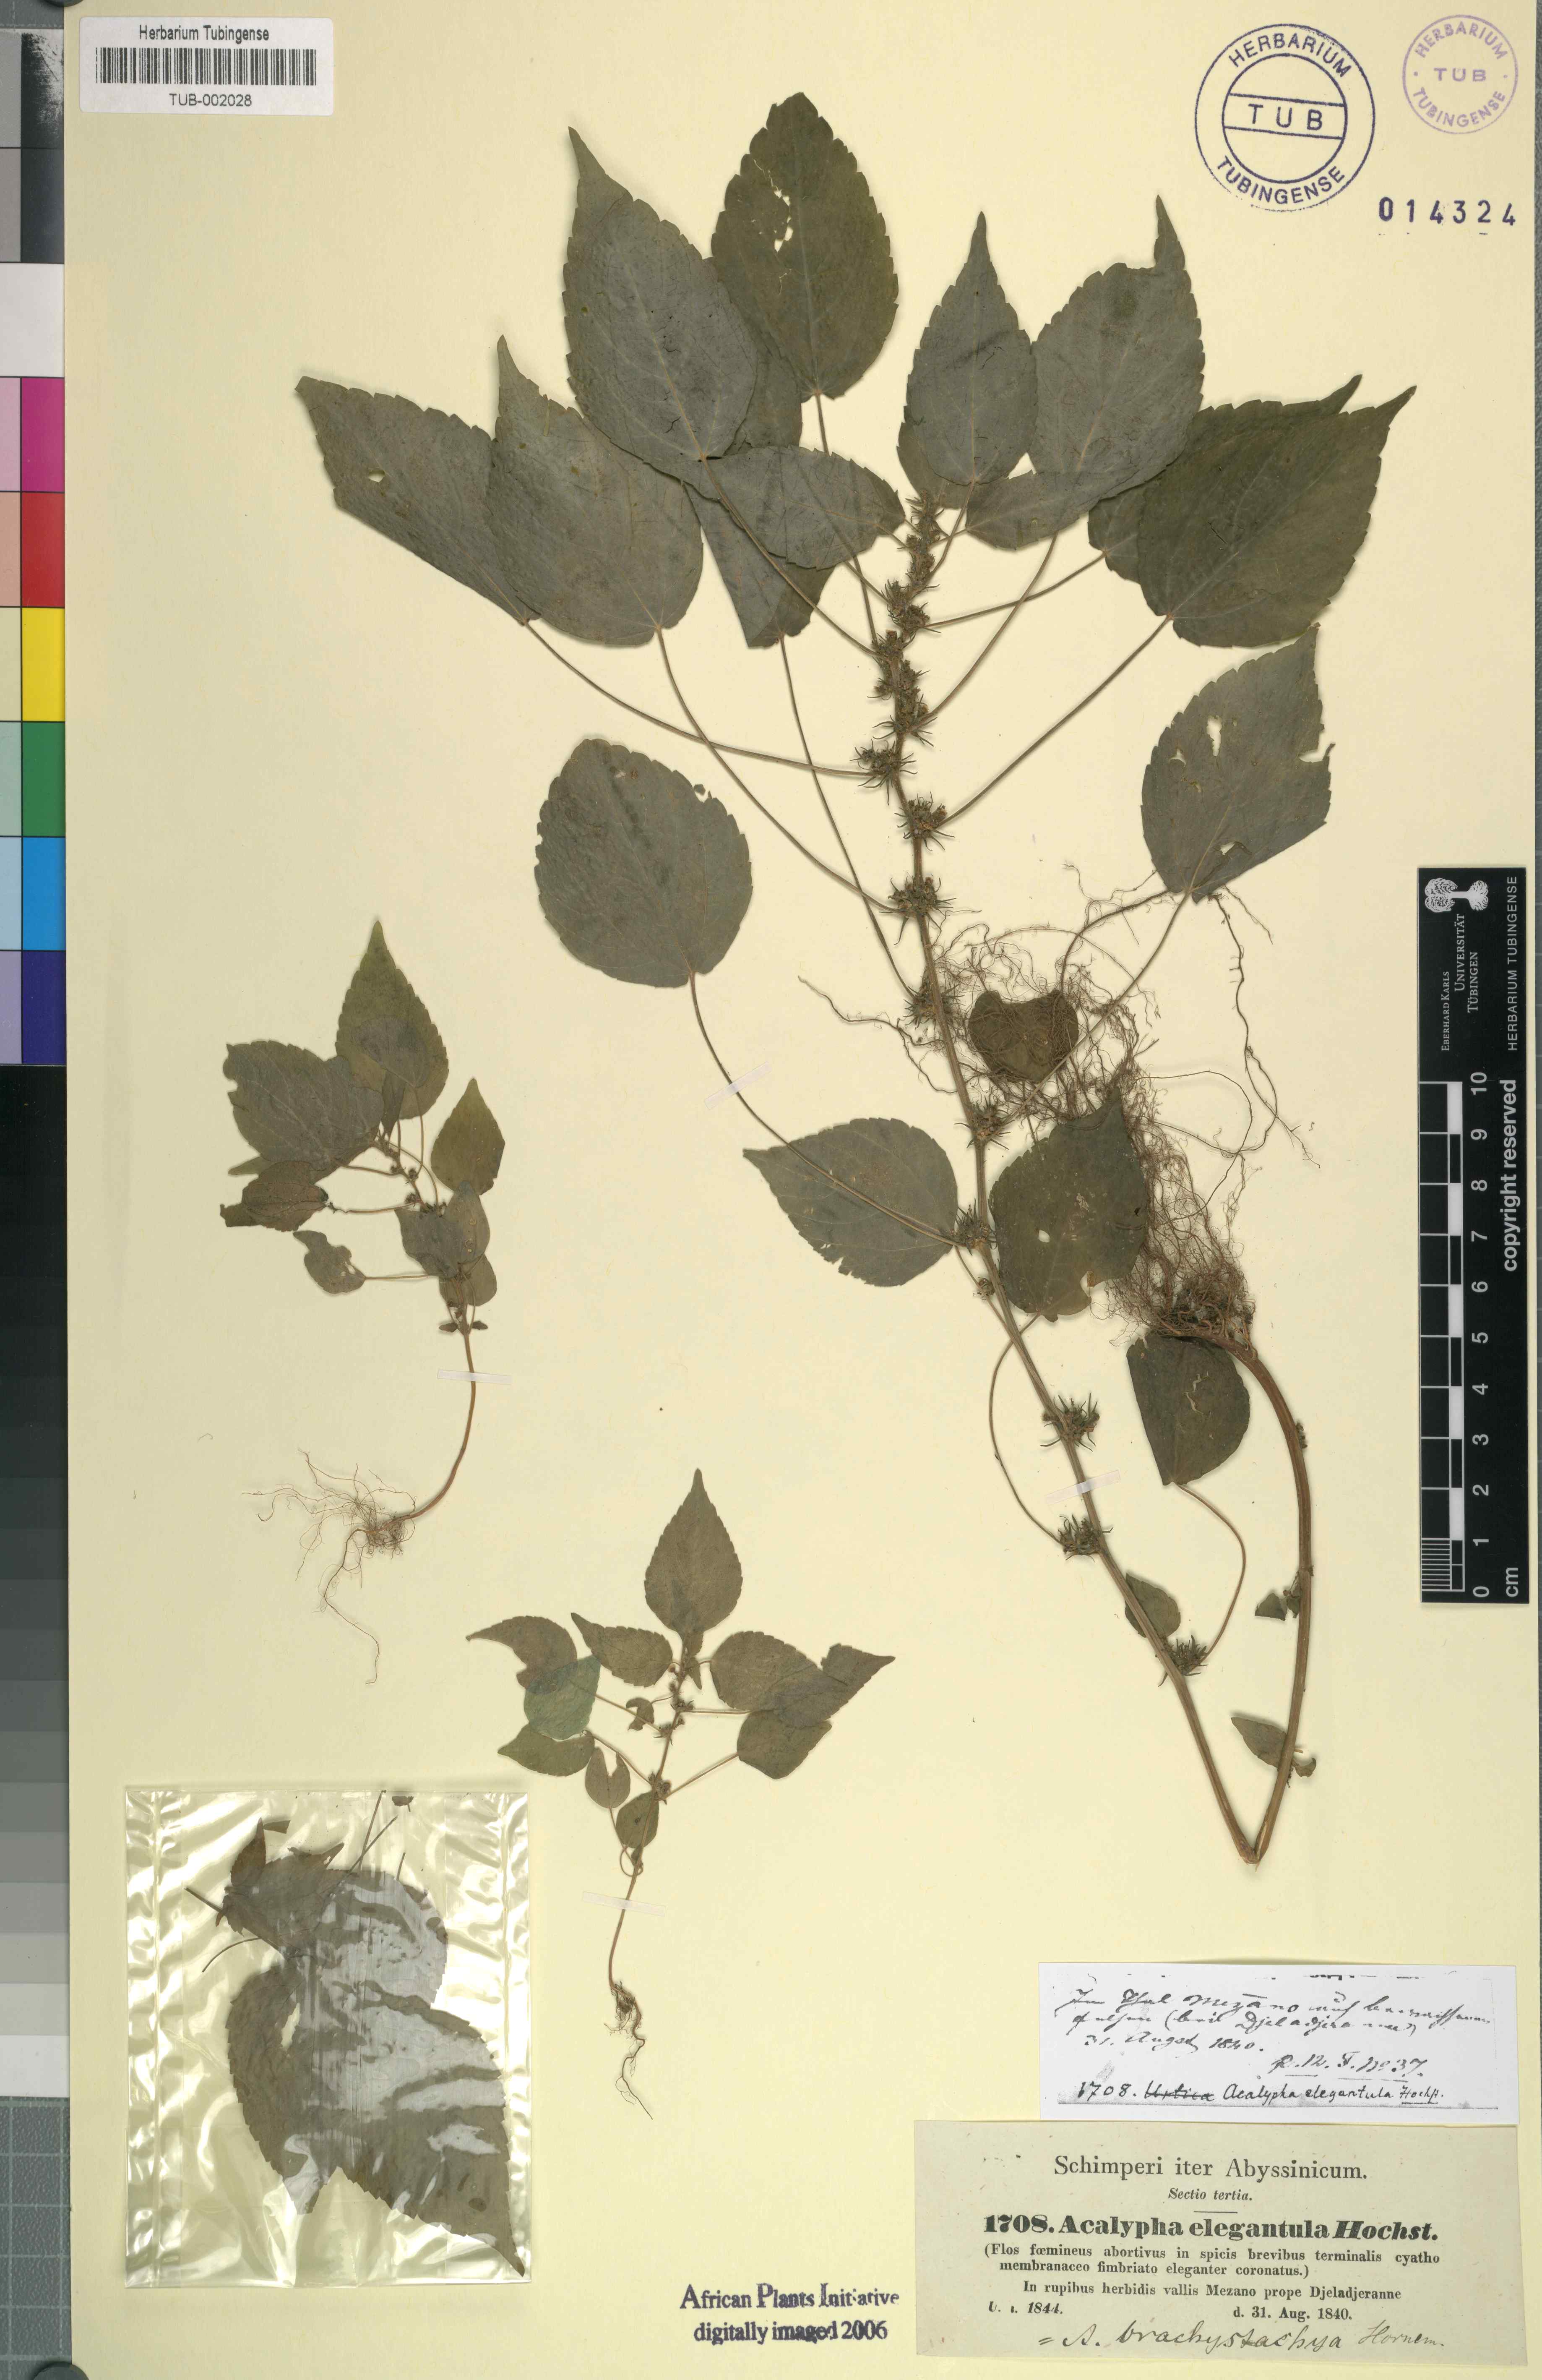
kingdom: Plantae
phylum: Tracheophyta
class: Magnoliopsida
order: Malpighiales
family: Euphorbiaceae
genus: Acalypha
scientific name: Acalypha brachystachya
